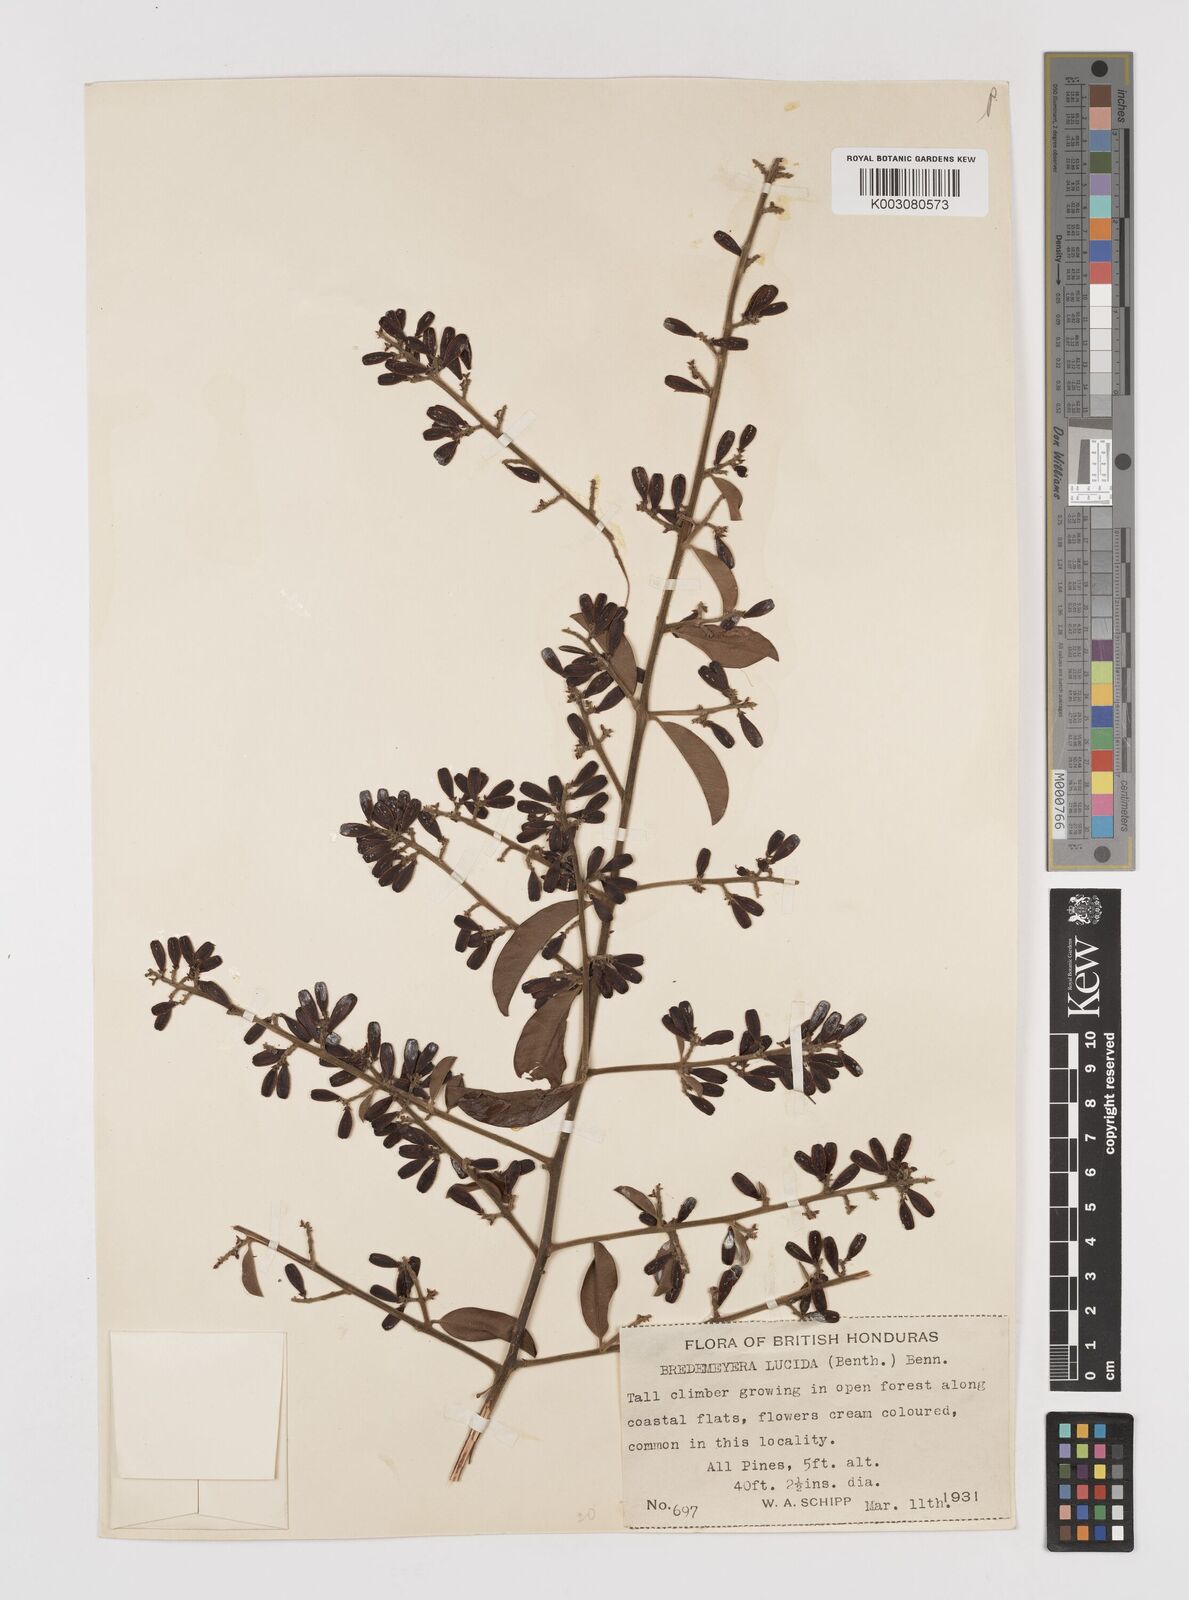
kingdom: Plantae
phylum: Tracheophyta
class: Magnoliopsida
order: Fabales
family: Polygalaceae
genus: Bredemeyera
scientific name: Bredemeyera lucida
